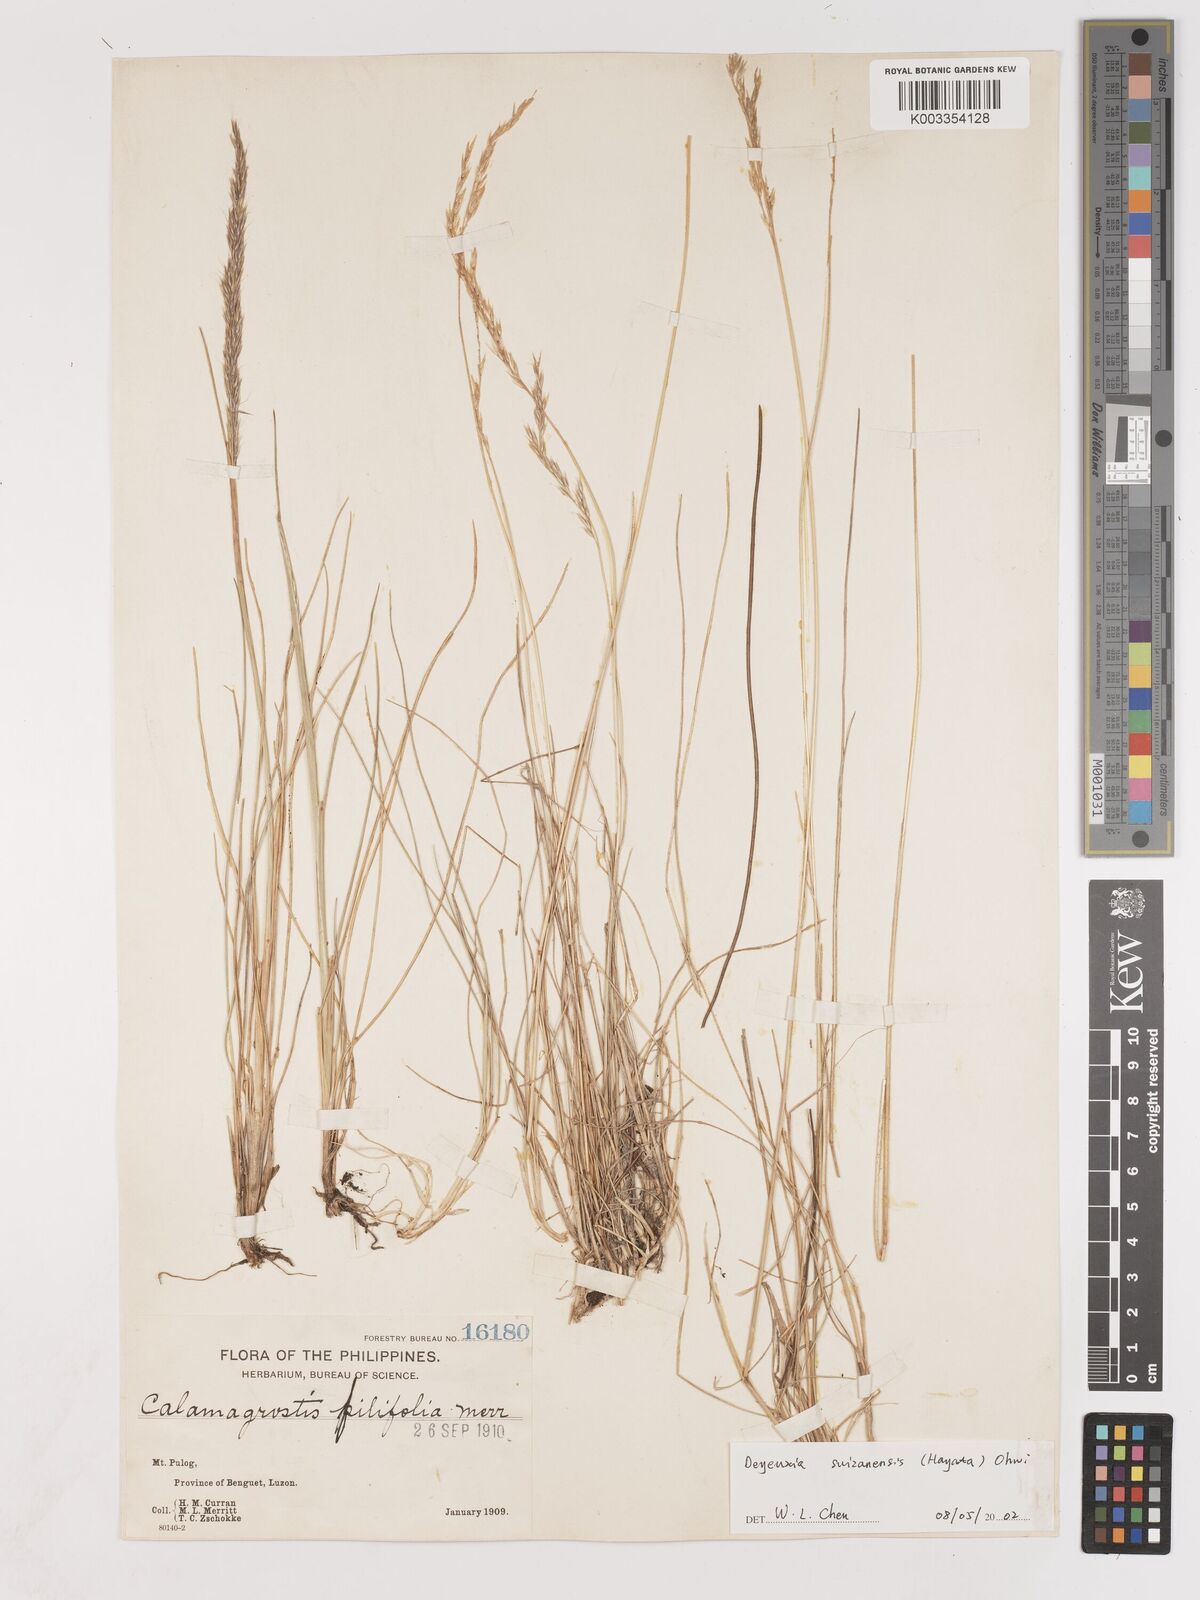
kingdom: Plantae
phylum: Tracheophyta
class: Liliopsida
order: Poales
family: Poaceae
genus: Calamagrostis
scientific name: Calamagrostis filifolia
